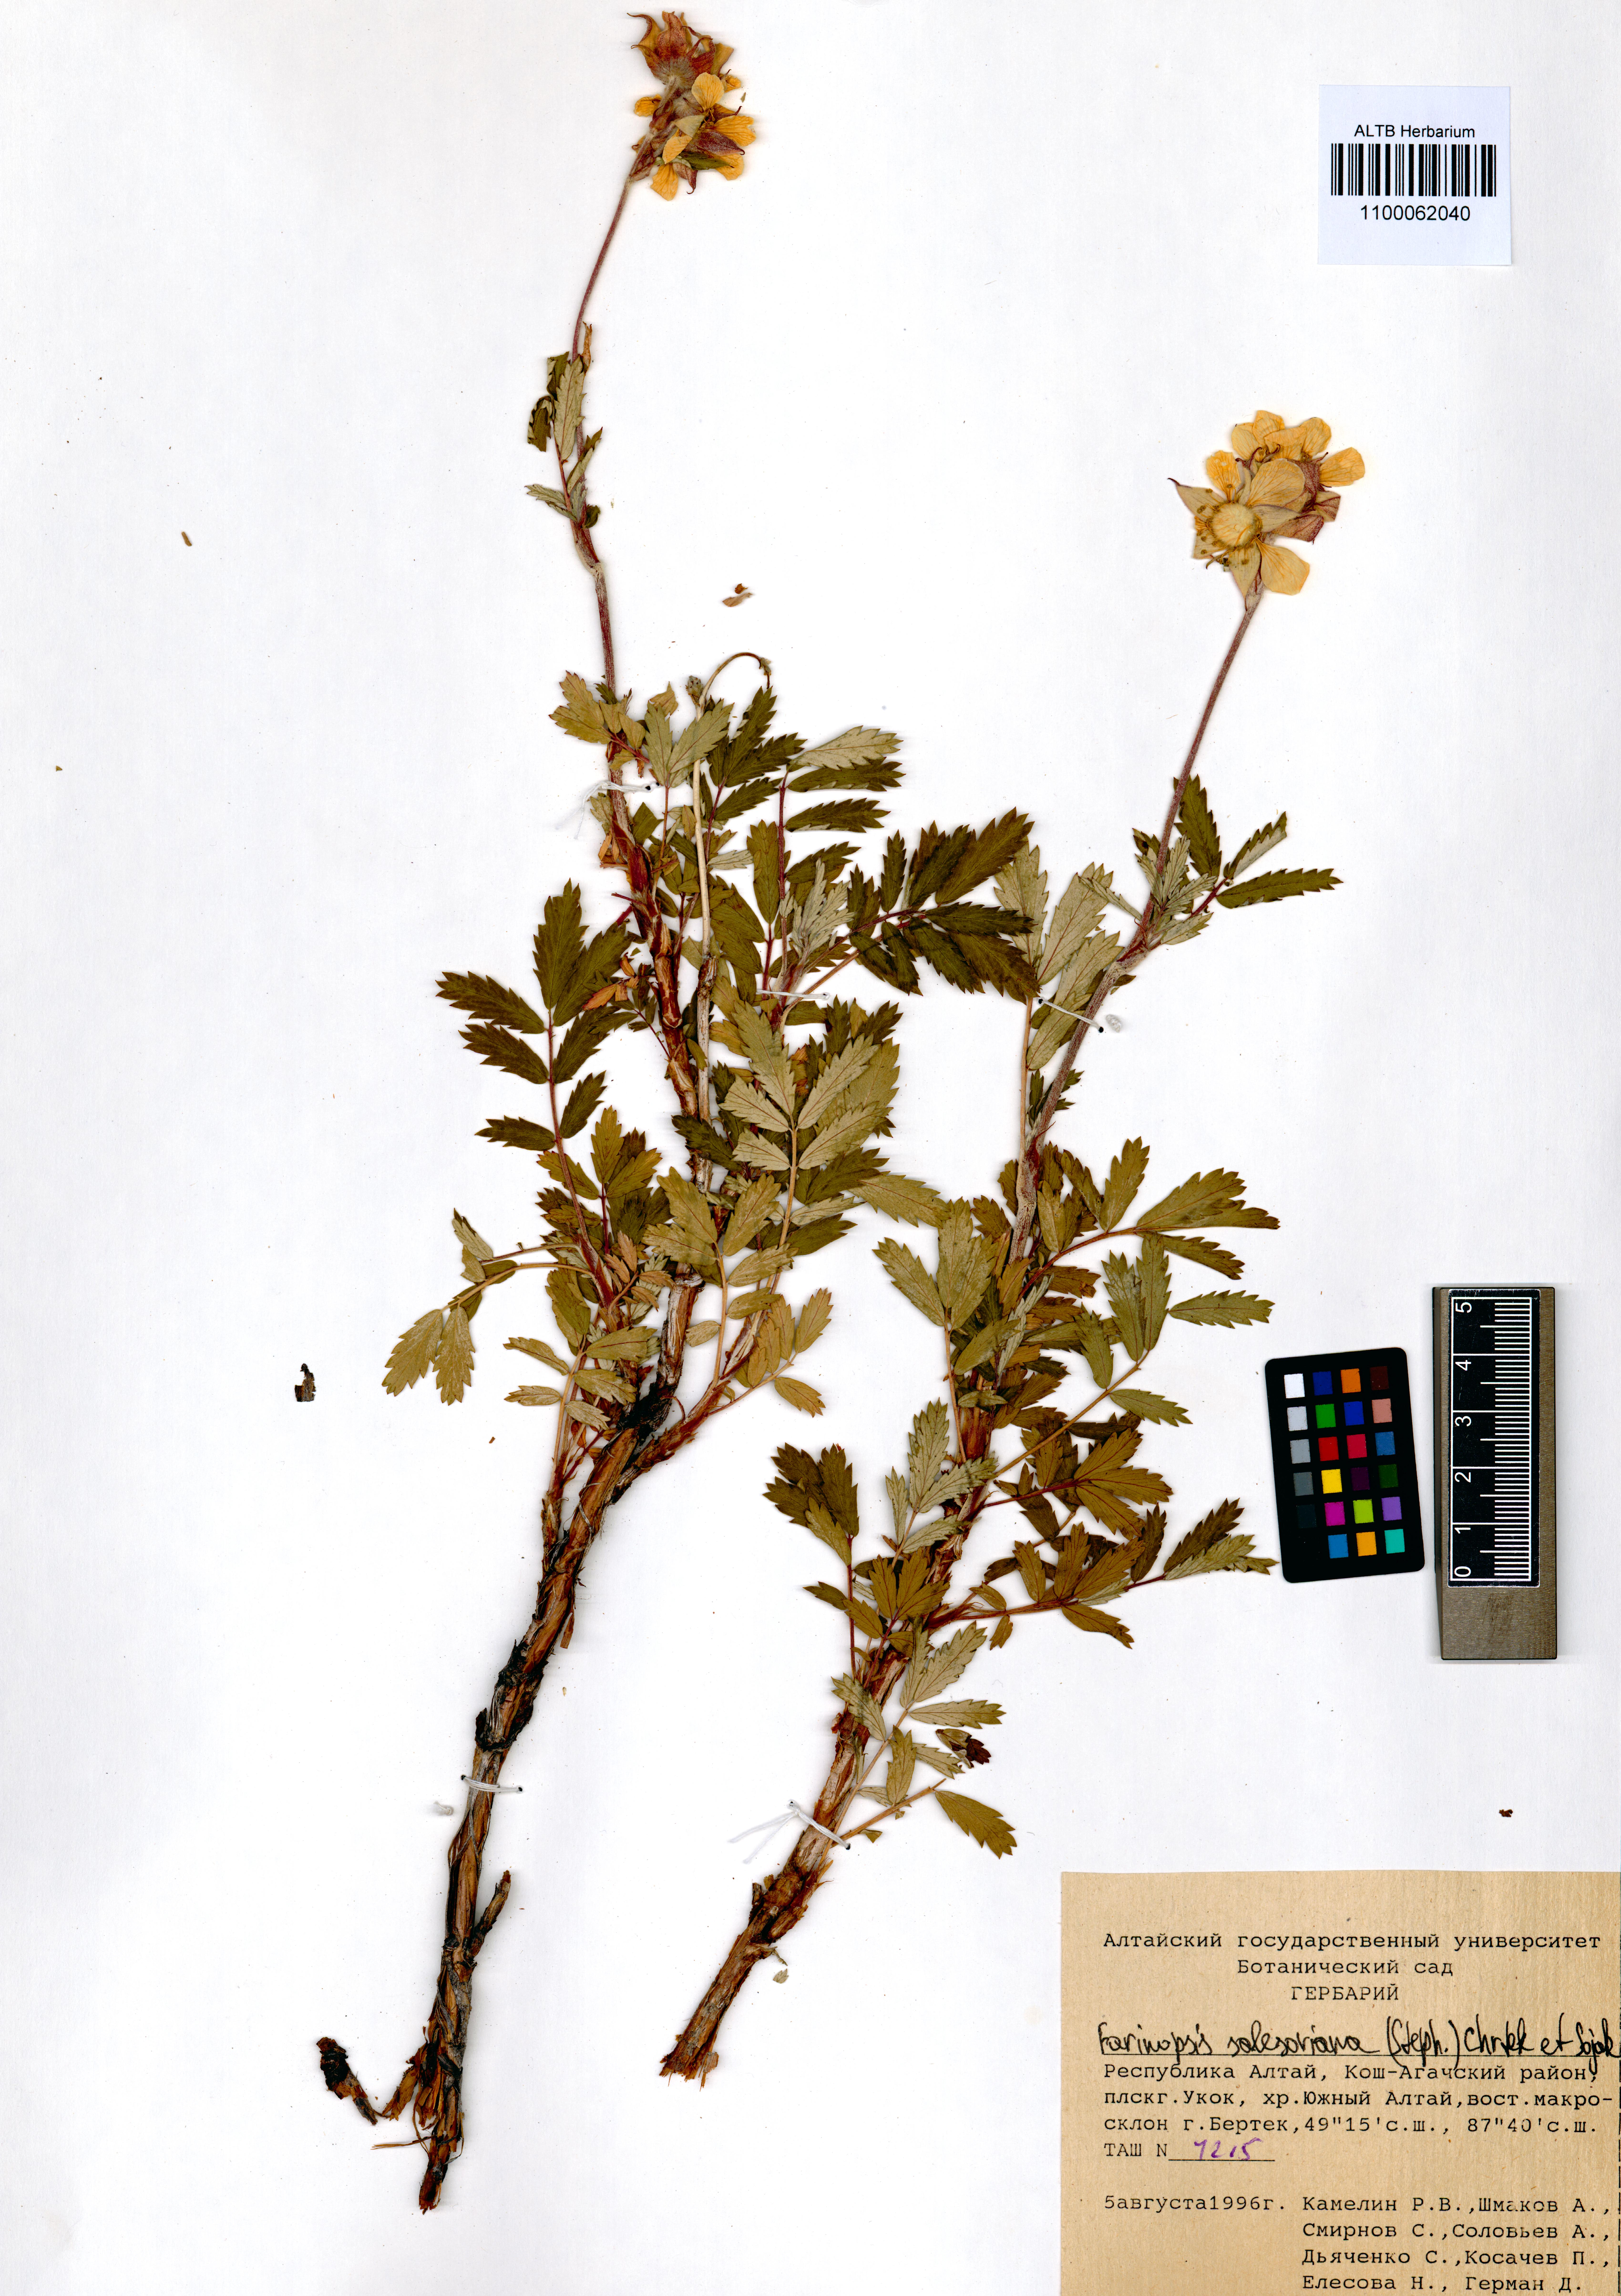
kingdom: Plantae
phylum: Tracheophyta
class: Magnoliopsida
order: Rosales
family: Rosaceae
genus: Farinopsis
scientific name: Farinopsis salesoviana
